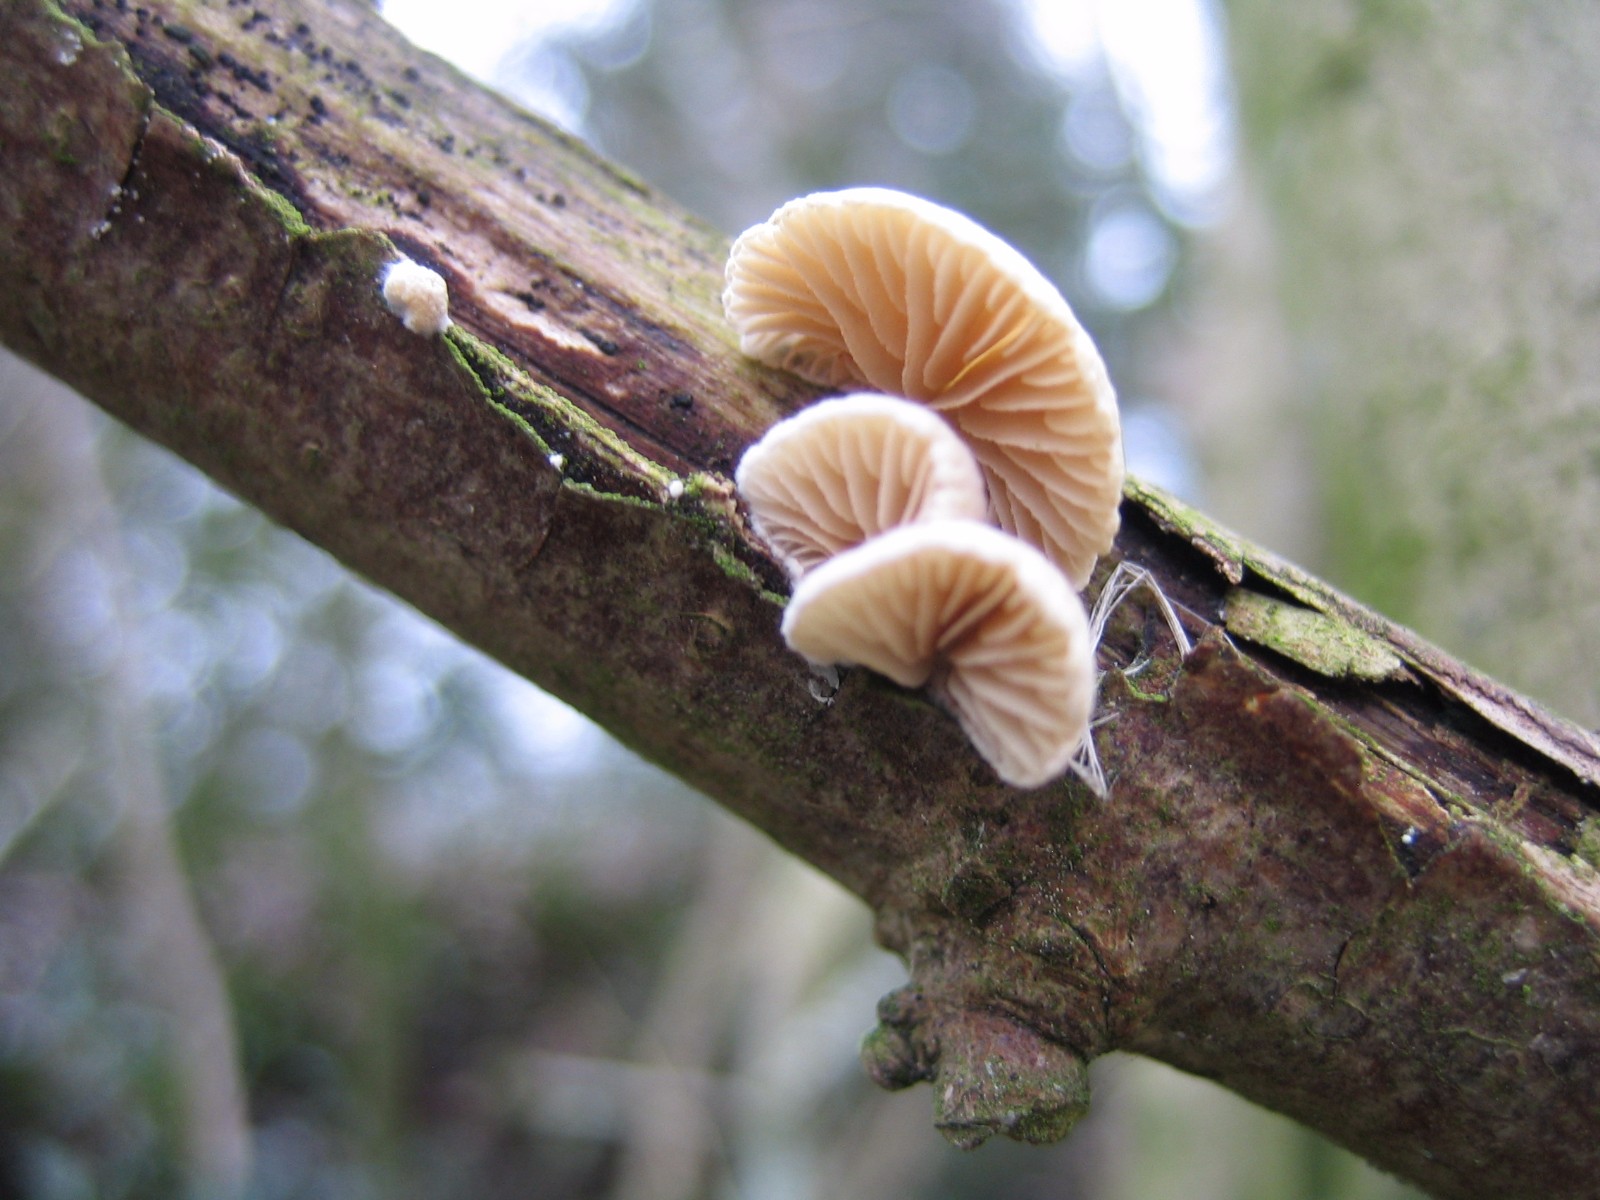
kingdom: Fungi
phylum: Basidiomycota
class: Agaricomycetes
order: Agaricales
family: Crepidotaceae
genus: Crepidotus
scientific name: Crepidotus
